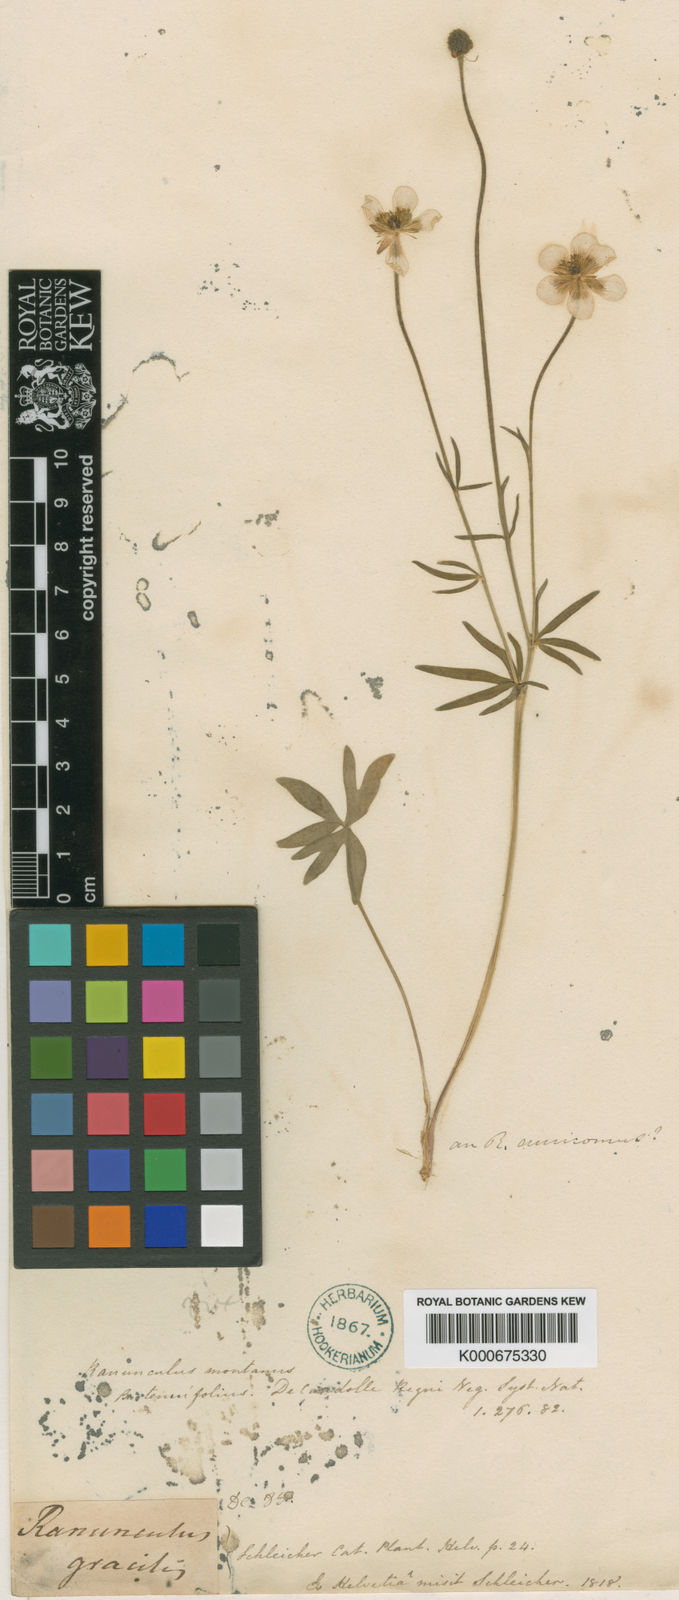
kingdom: Plantae
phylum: Tracheophyta
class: Magnoliopsida
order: Ranunculales
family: Ranunculaceae
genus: Ranunculus
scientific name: Ranunculus carinthiacus
